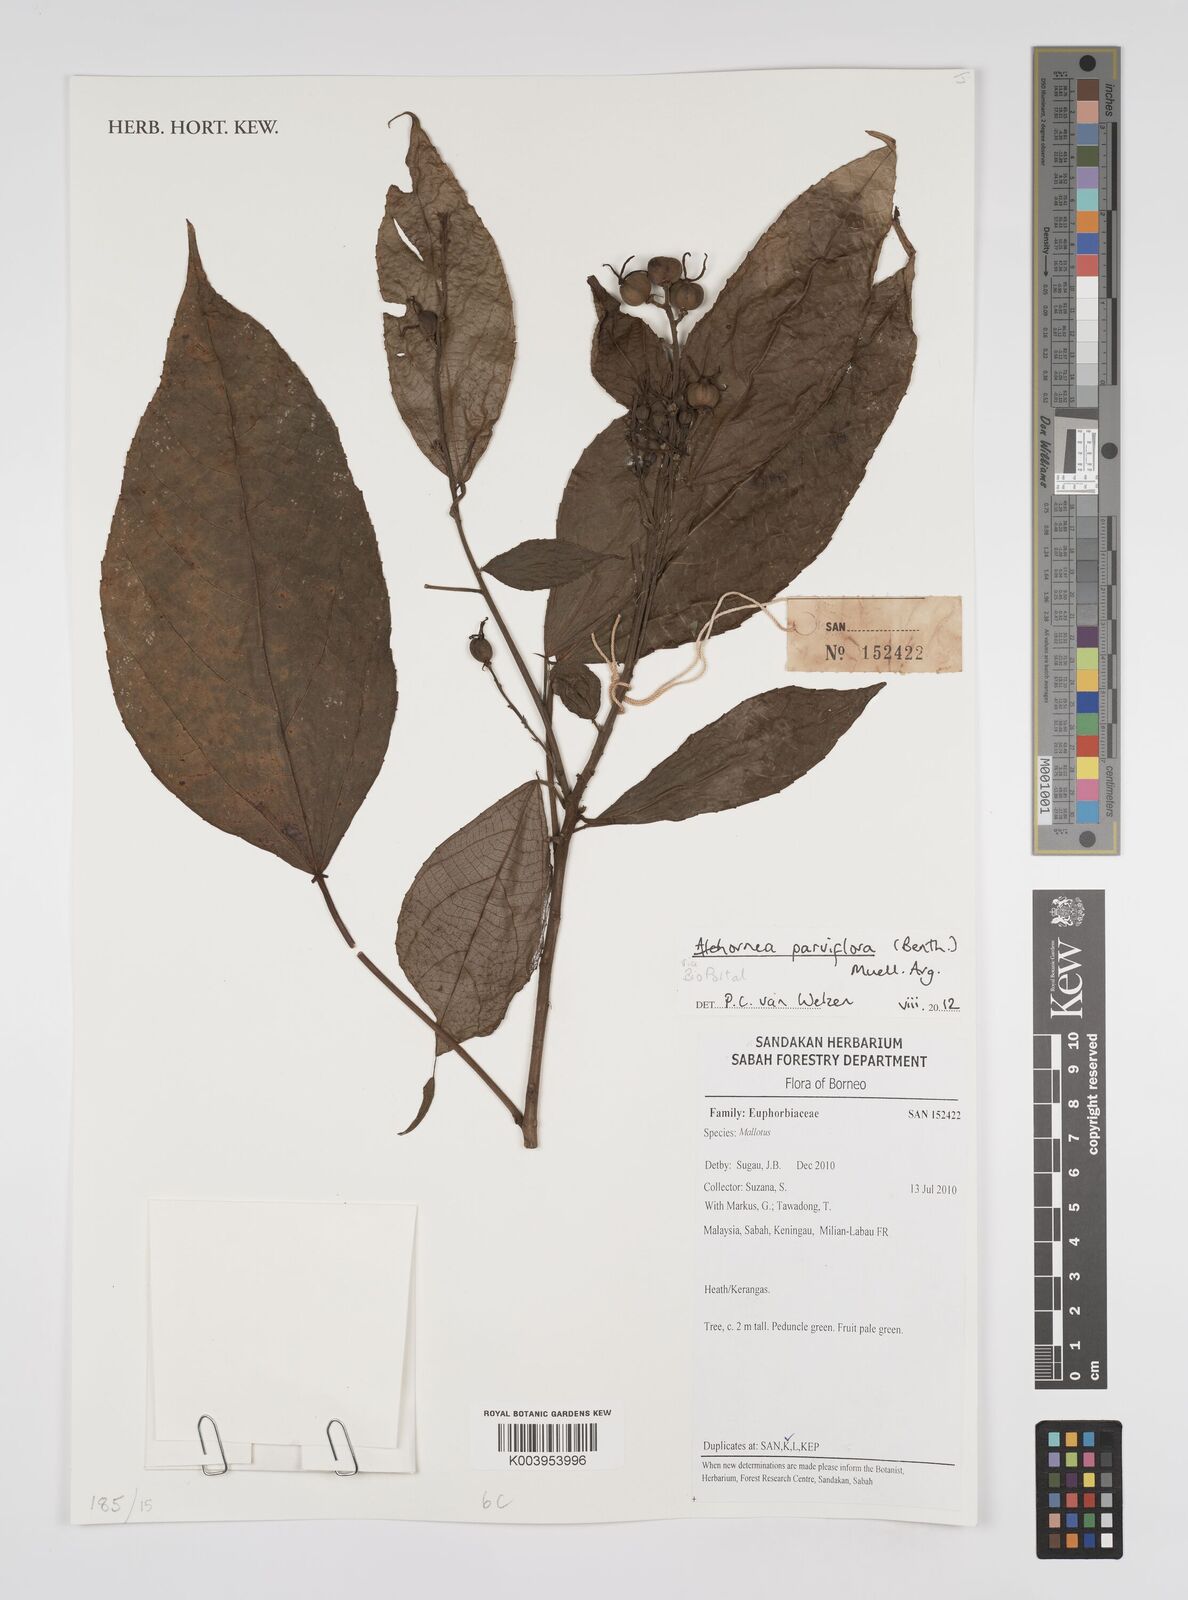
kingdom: Plantae
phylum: Tracheophyta
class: Magnoliopsida
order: Malpighiales
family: Euphorbiaceae
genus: Alchornea
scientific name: Alchornea parviflora
